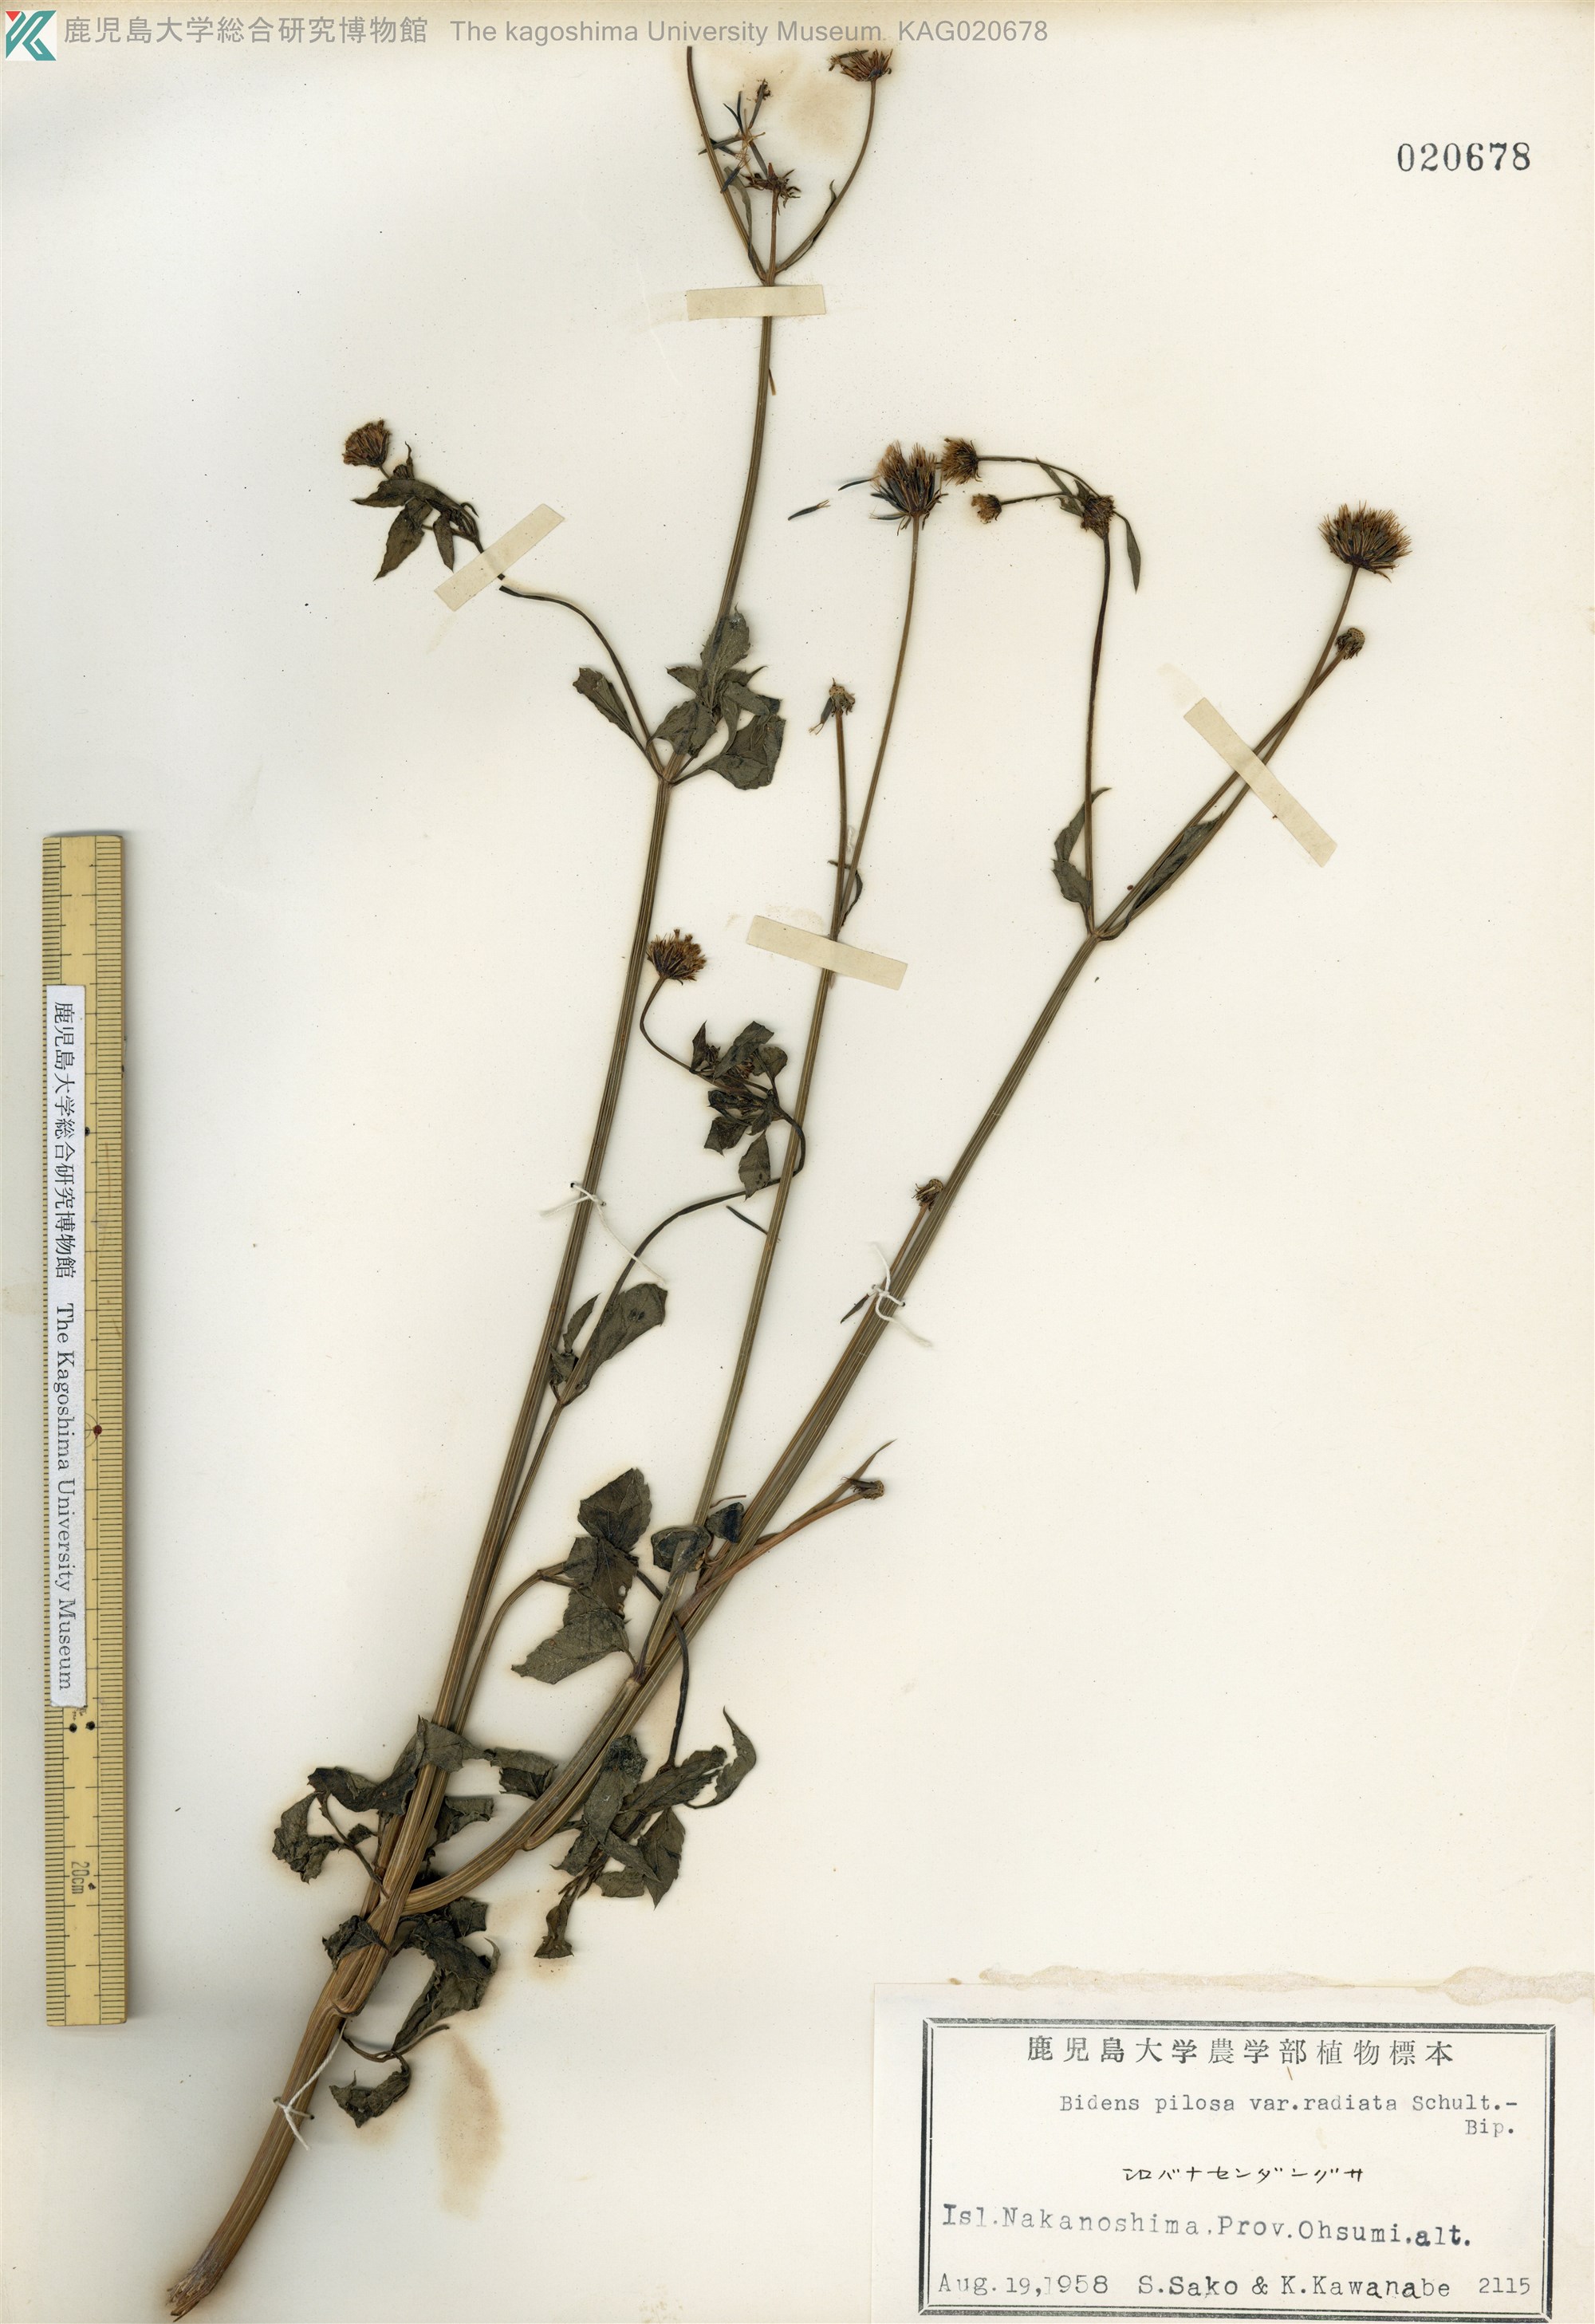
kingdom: Plantae
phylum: Tracheophyta
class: Magnoliopsida
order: Asterales
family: Asteraceae
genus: Bidens
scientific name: Bidens pilosa
